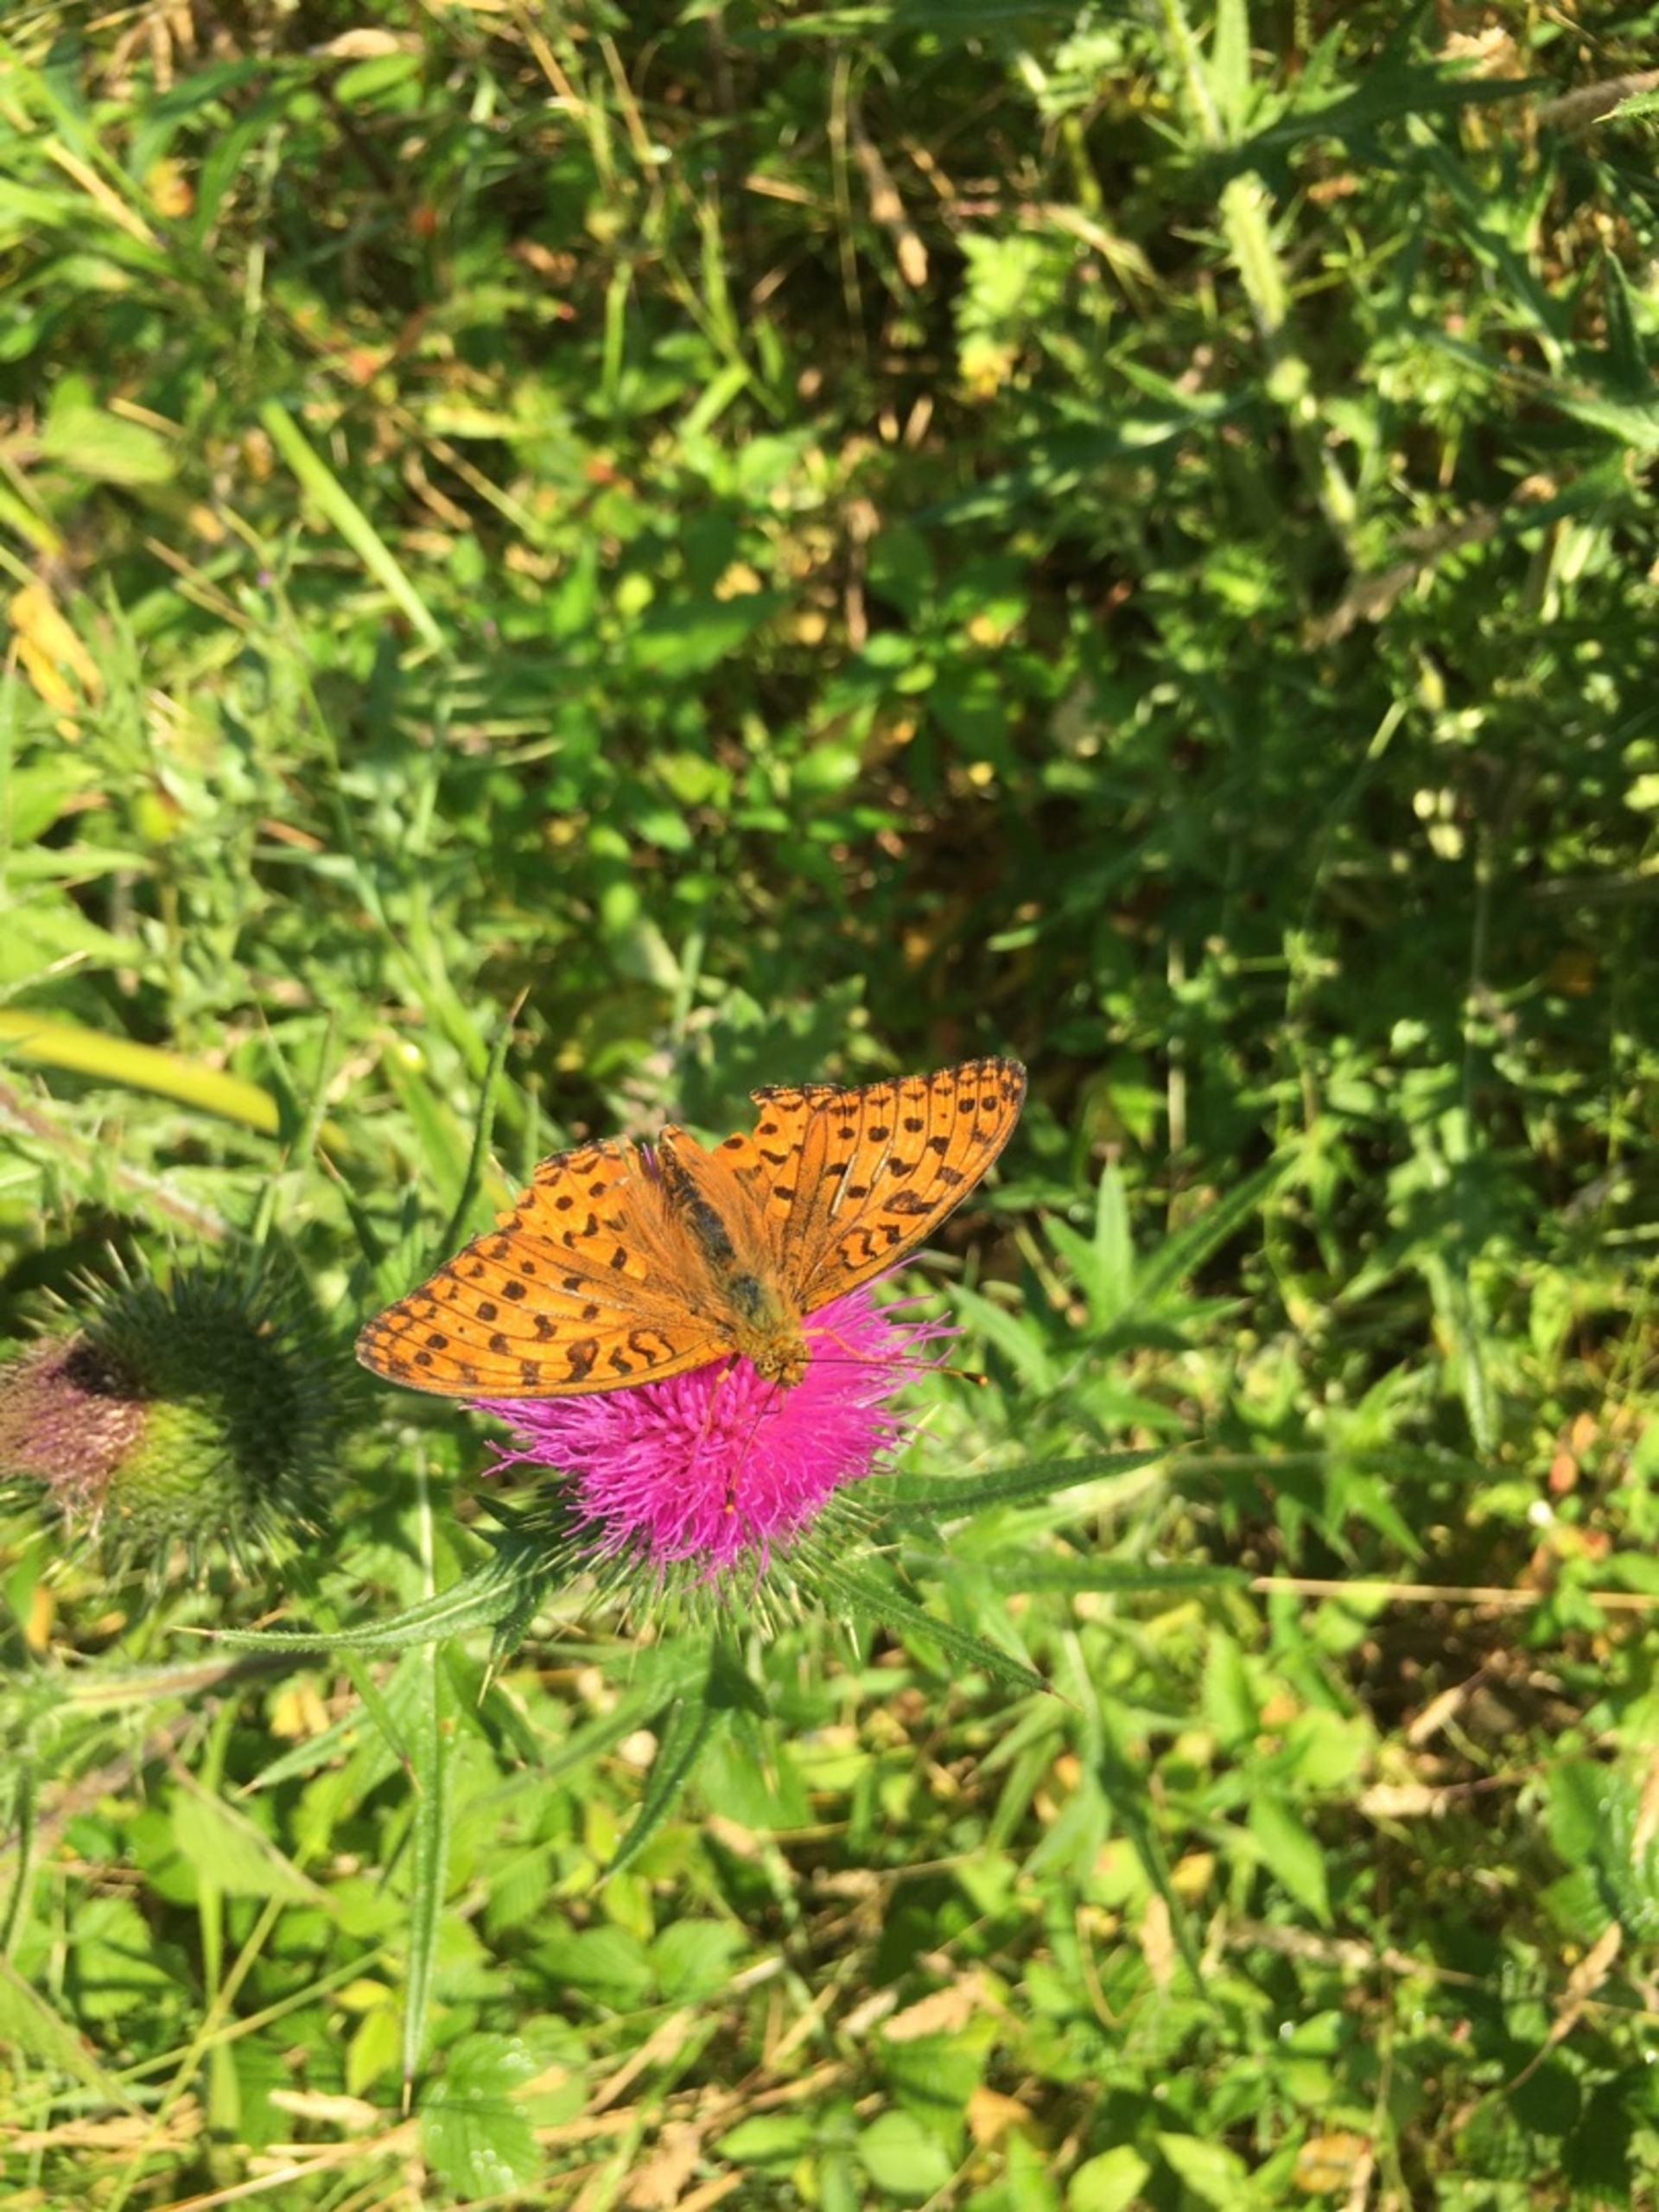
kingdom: Animalia
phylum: Arthropoda
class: Insecta
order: Lepidoptera
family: Nymphalidae
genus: Fabriciana
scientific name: Fabriciana adippe
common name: Skovperlemorsommerfugl
